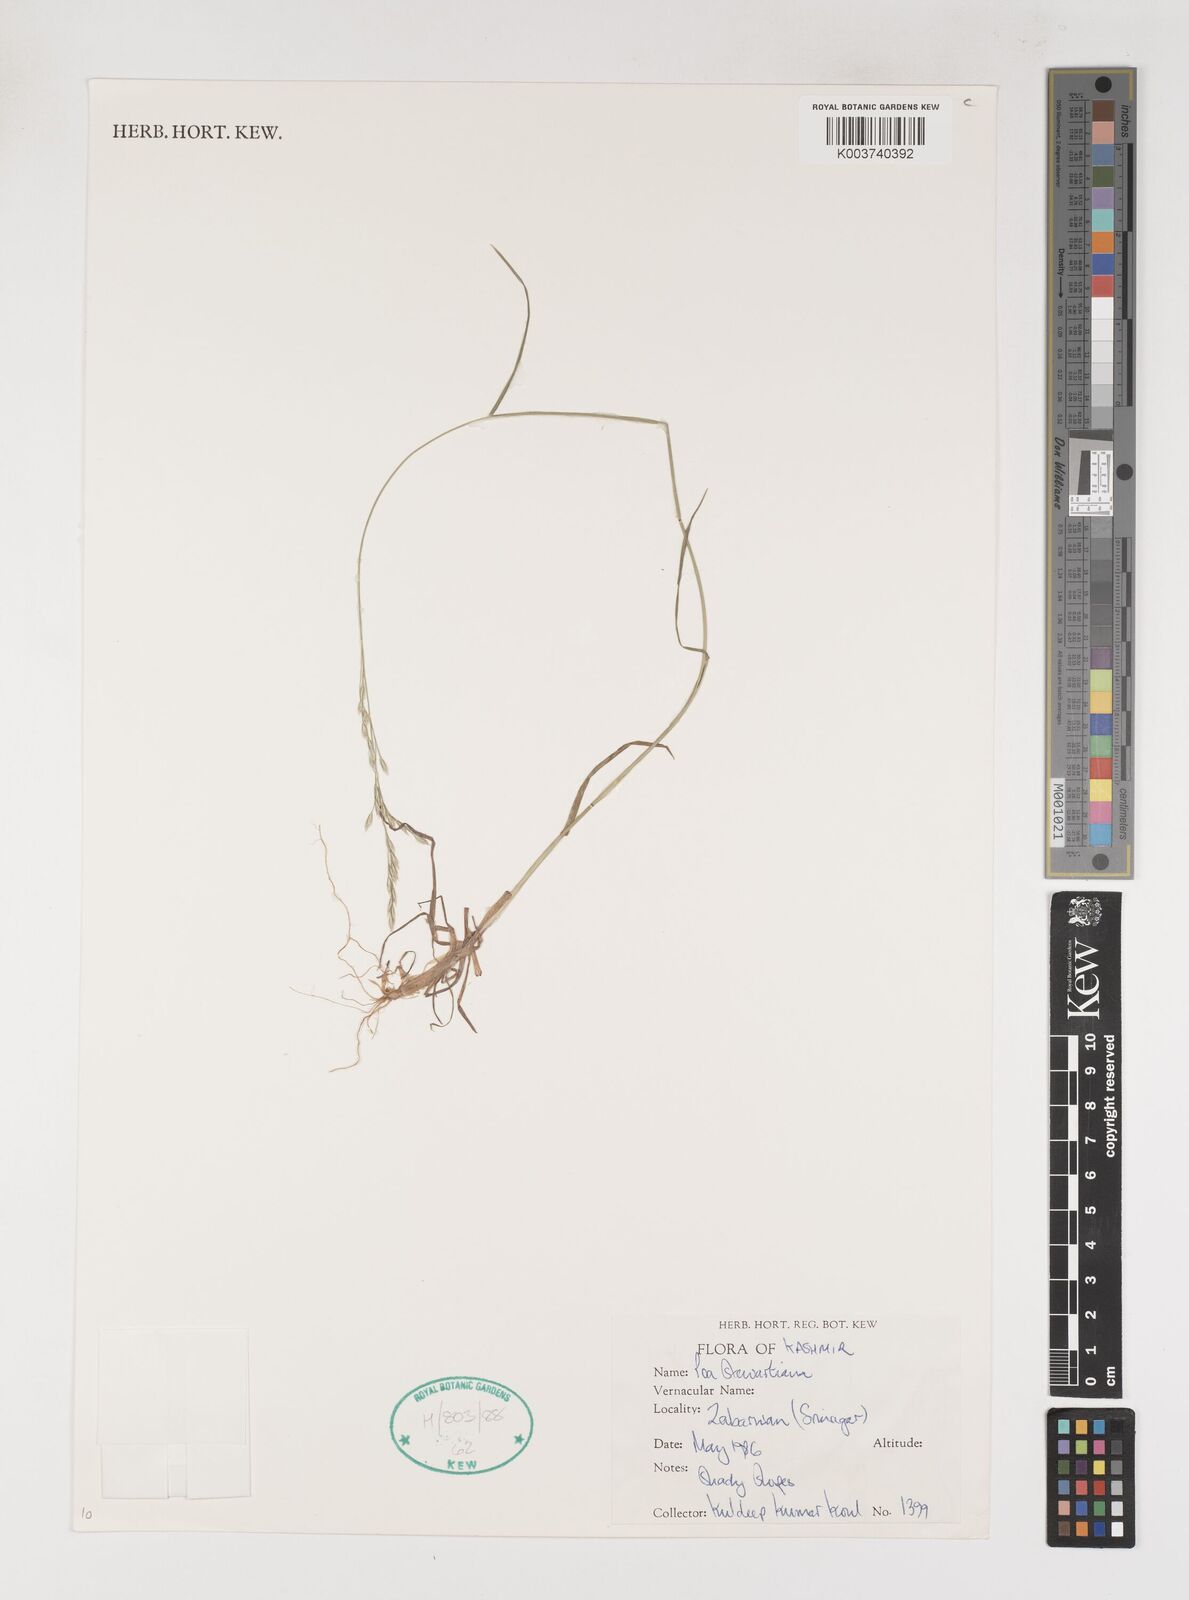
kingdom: Plantae
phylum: Tracheophyta
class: Liliopsida
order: Poales
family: Poaceae
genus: Poa
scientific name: Poa stewartiana
